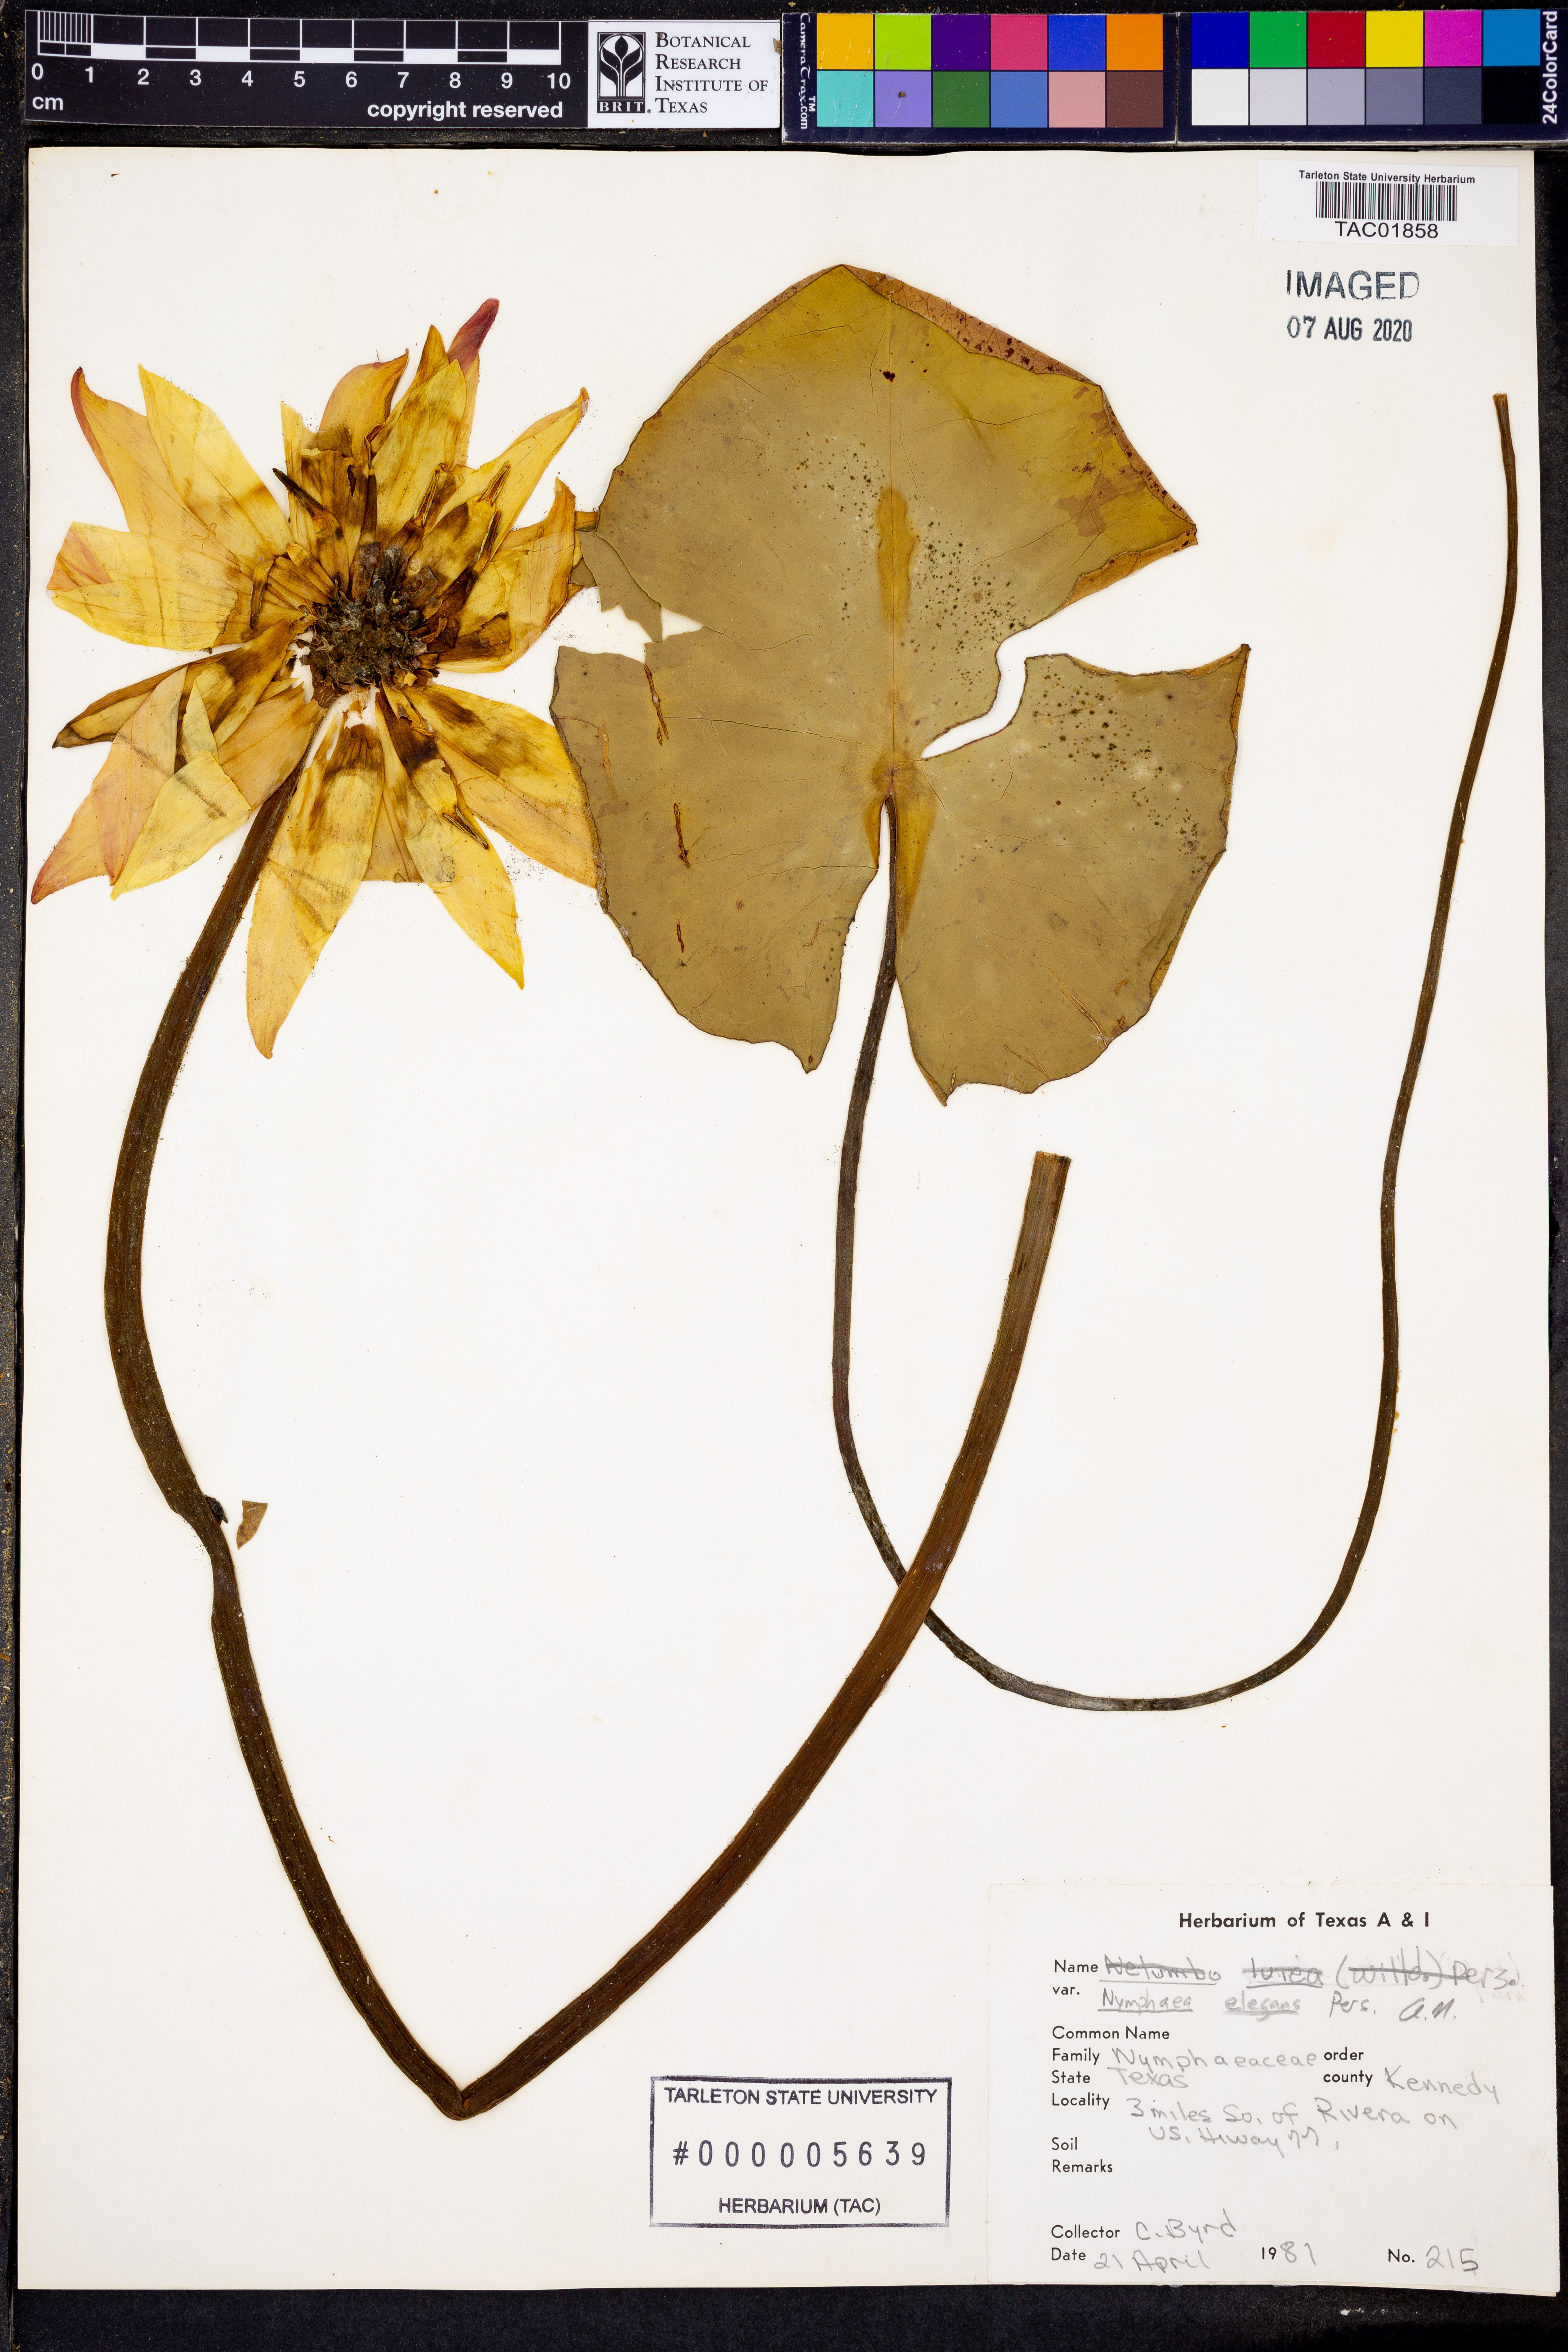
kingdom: Plantae
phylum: Tracheophyta
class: Magnoliopsida
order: Nymphaeales
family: Nymphaeaceae
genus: Nymphaea
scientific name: Nymphaea elegans
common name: Blue water-lily
